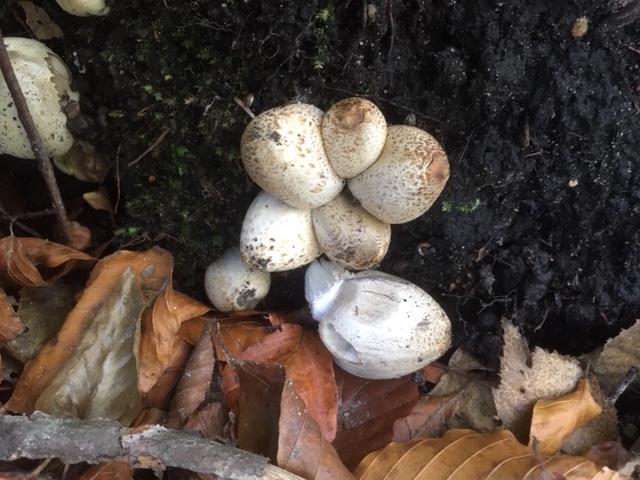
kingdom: Fungi
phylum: Basidiomycota
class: Agaricomycetes
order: Agaricales
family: Psathyrellaceae
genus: Coprinopsis
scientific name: Coprinopsis romagnesiana
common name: brunskællet blækhat
